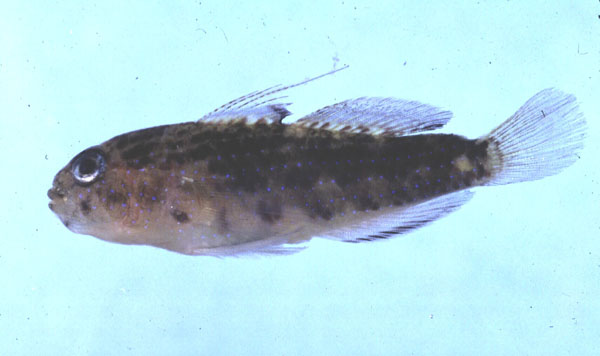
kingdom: Animalia
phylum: Chordata
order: Perciformes
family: Gobiidae
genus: Asterropteryx
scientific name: Asterropteryx semipunctata
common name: Starry goby
